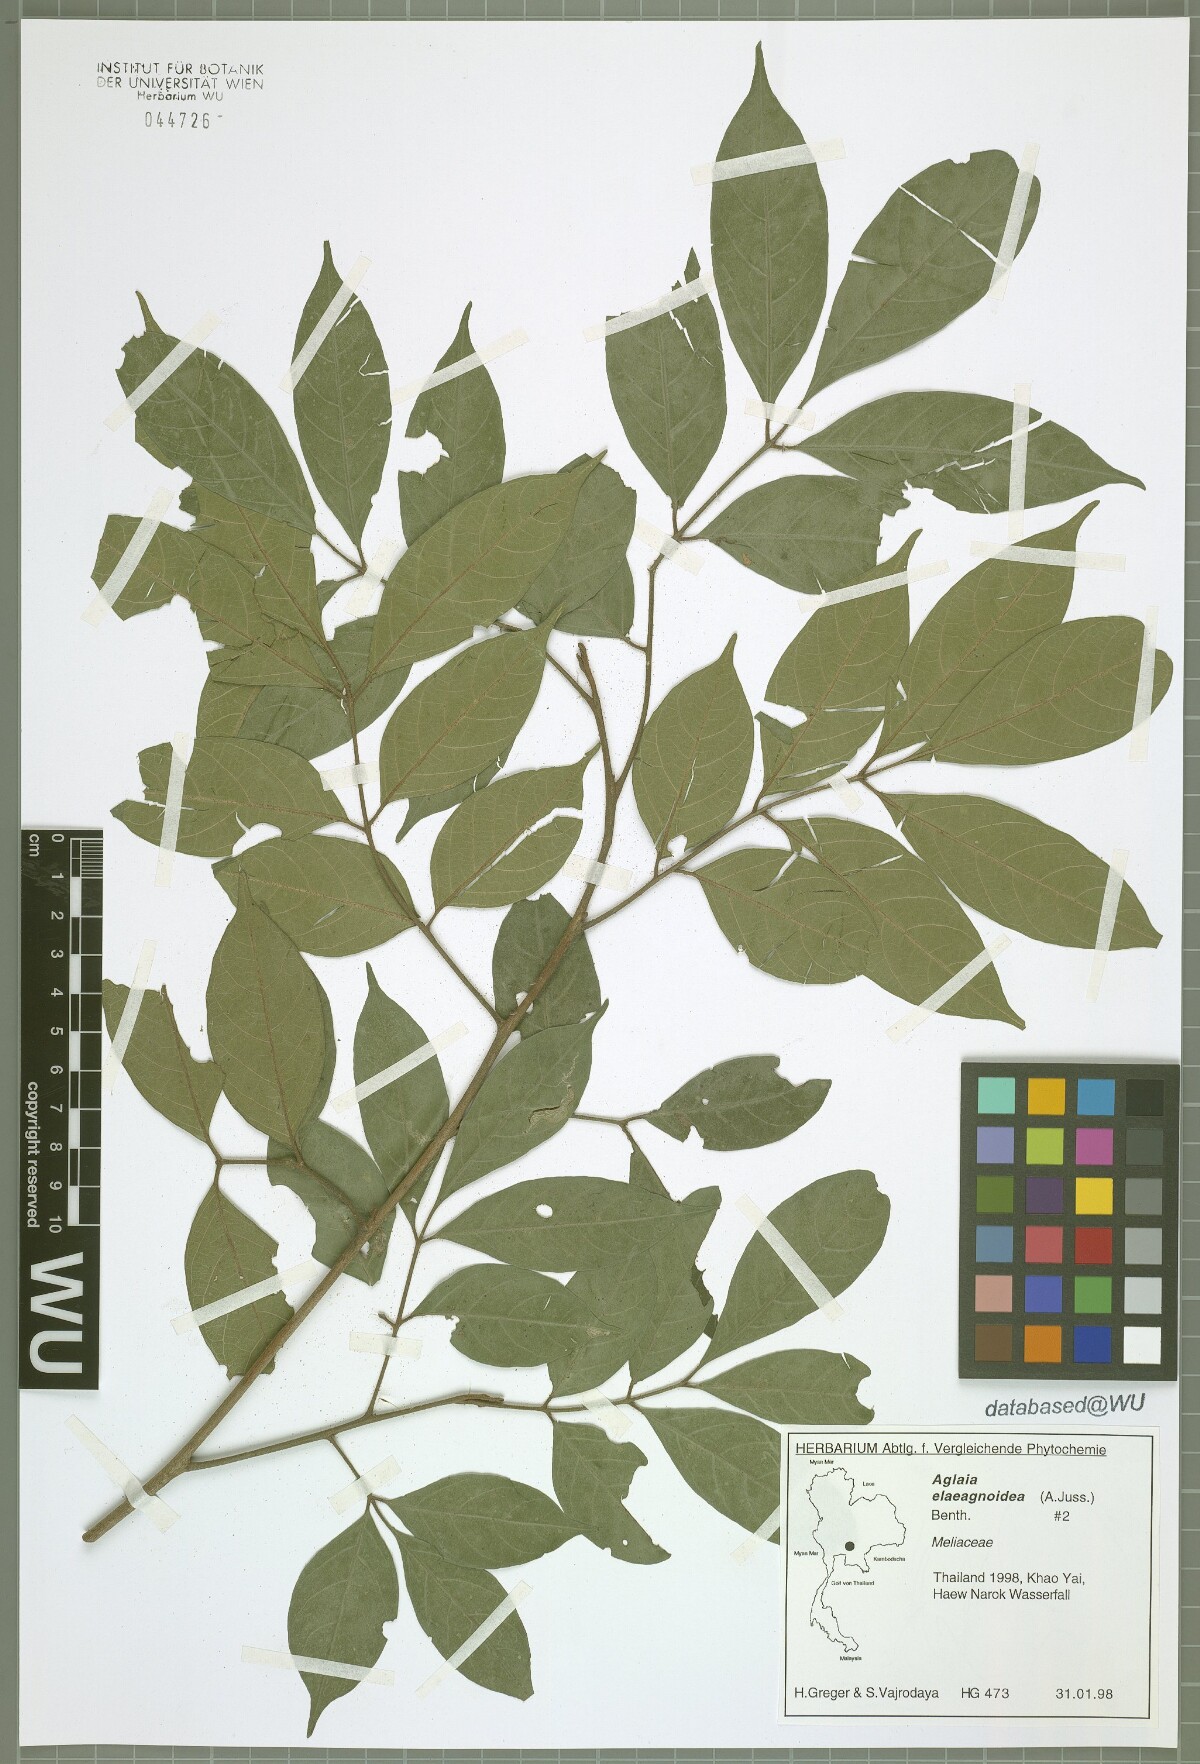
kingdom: Plantae
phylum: Tracheophyta
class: Magnoliopsida
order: Sapindales
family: Meliaceae
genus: Aglaia
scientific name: Aglaia elaeagnoidea
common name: Droopyleaf
